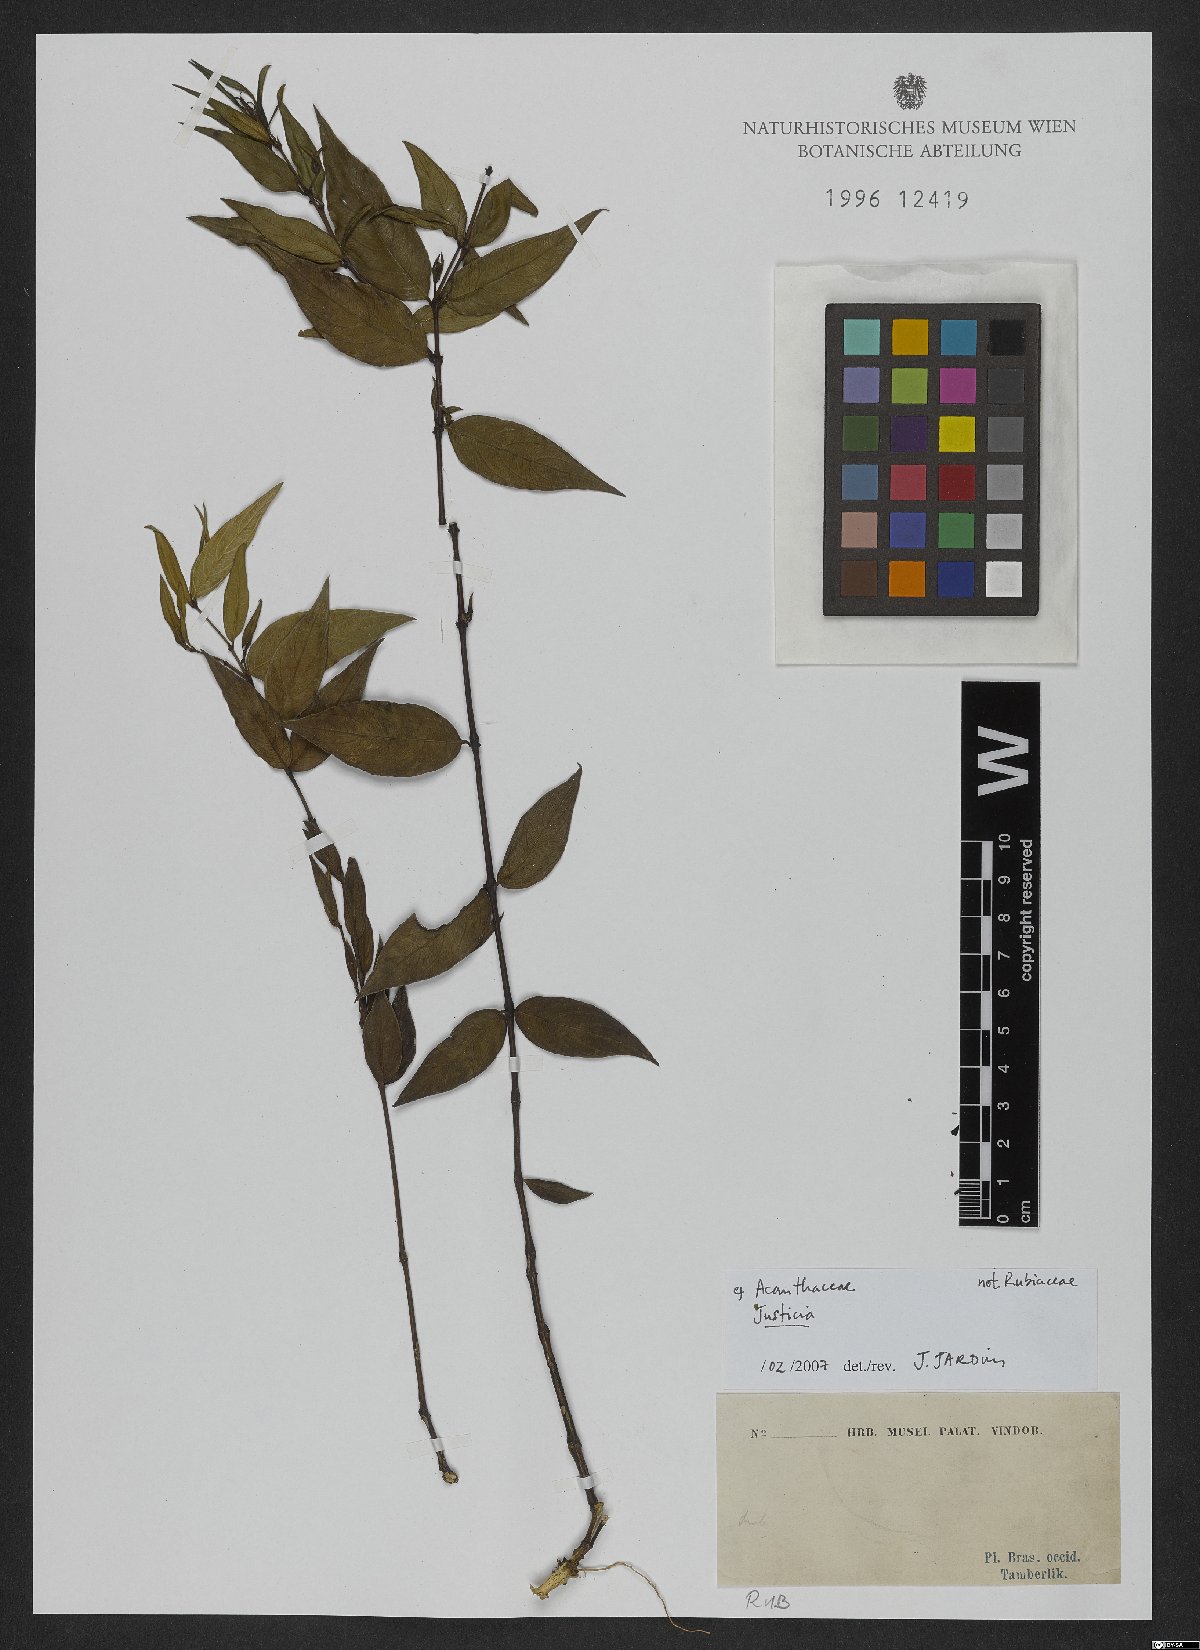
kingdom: Plantae
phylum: Tracheophyta
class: Magnoliopsida
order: Lamiales
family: Acanthaceae
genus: Justicia
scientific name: Justicia
